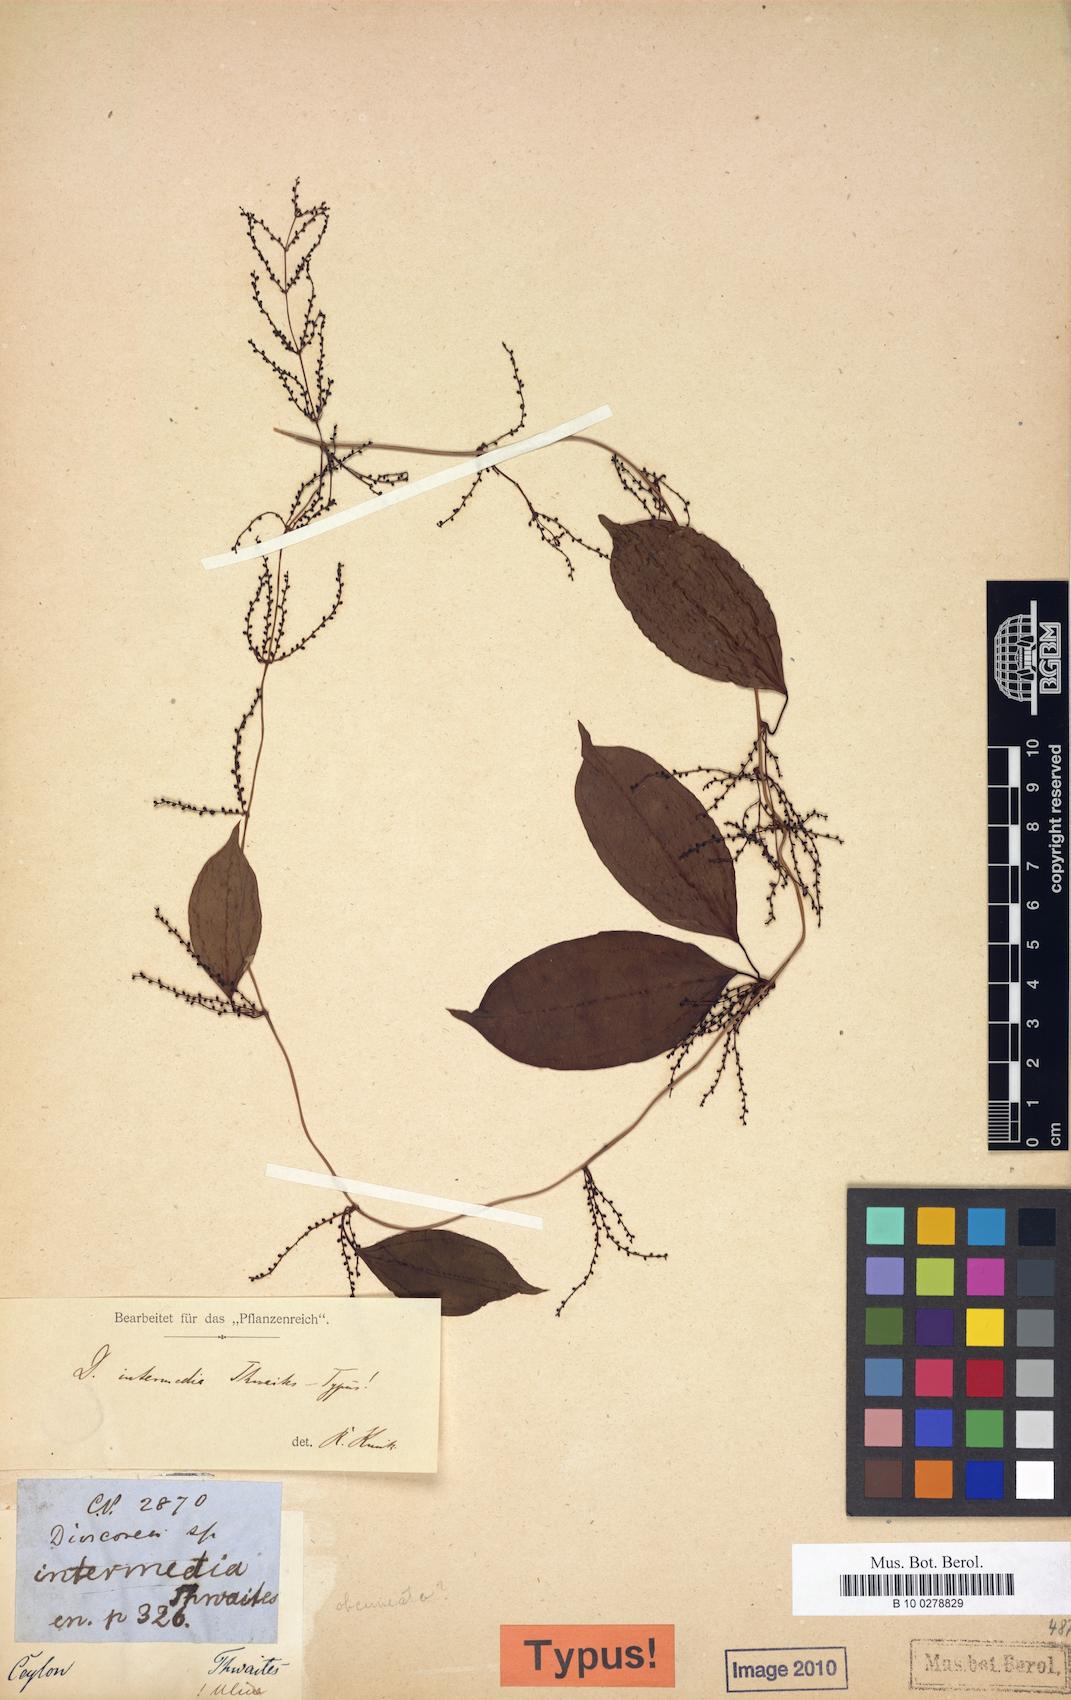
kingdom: Plantae
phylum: Tracheophyta
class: Liliopsida
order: Dioscoreales
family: Dioscoreaceae
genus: Dioscorea
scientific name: Dioscorea intermedia
